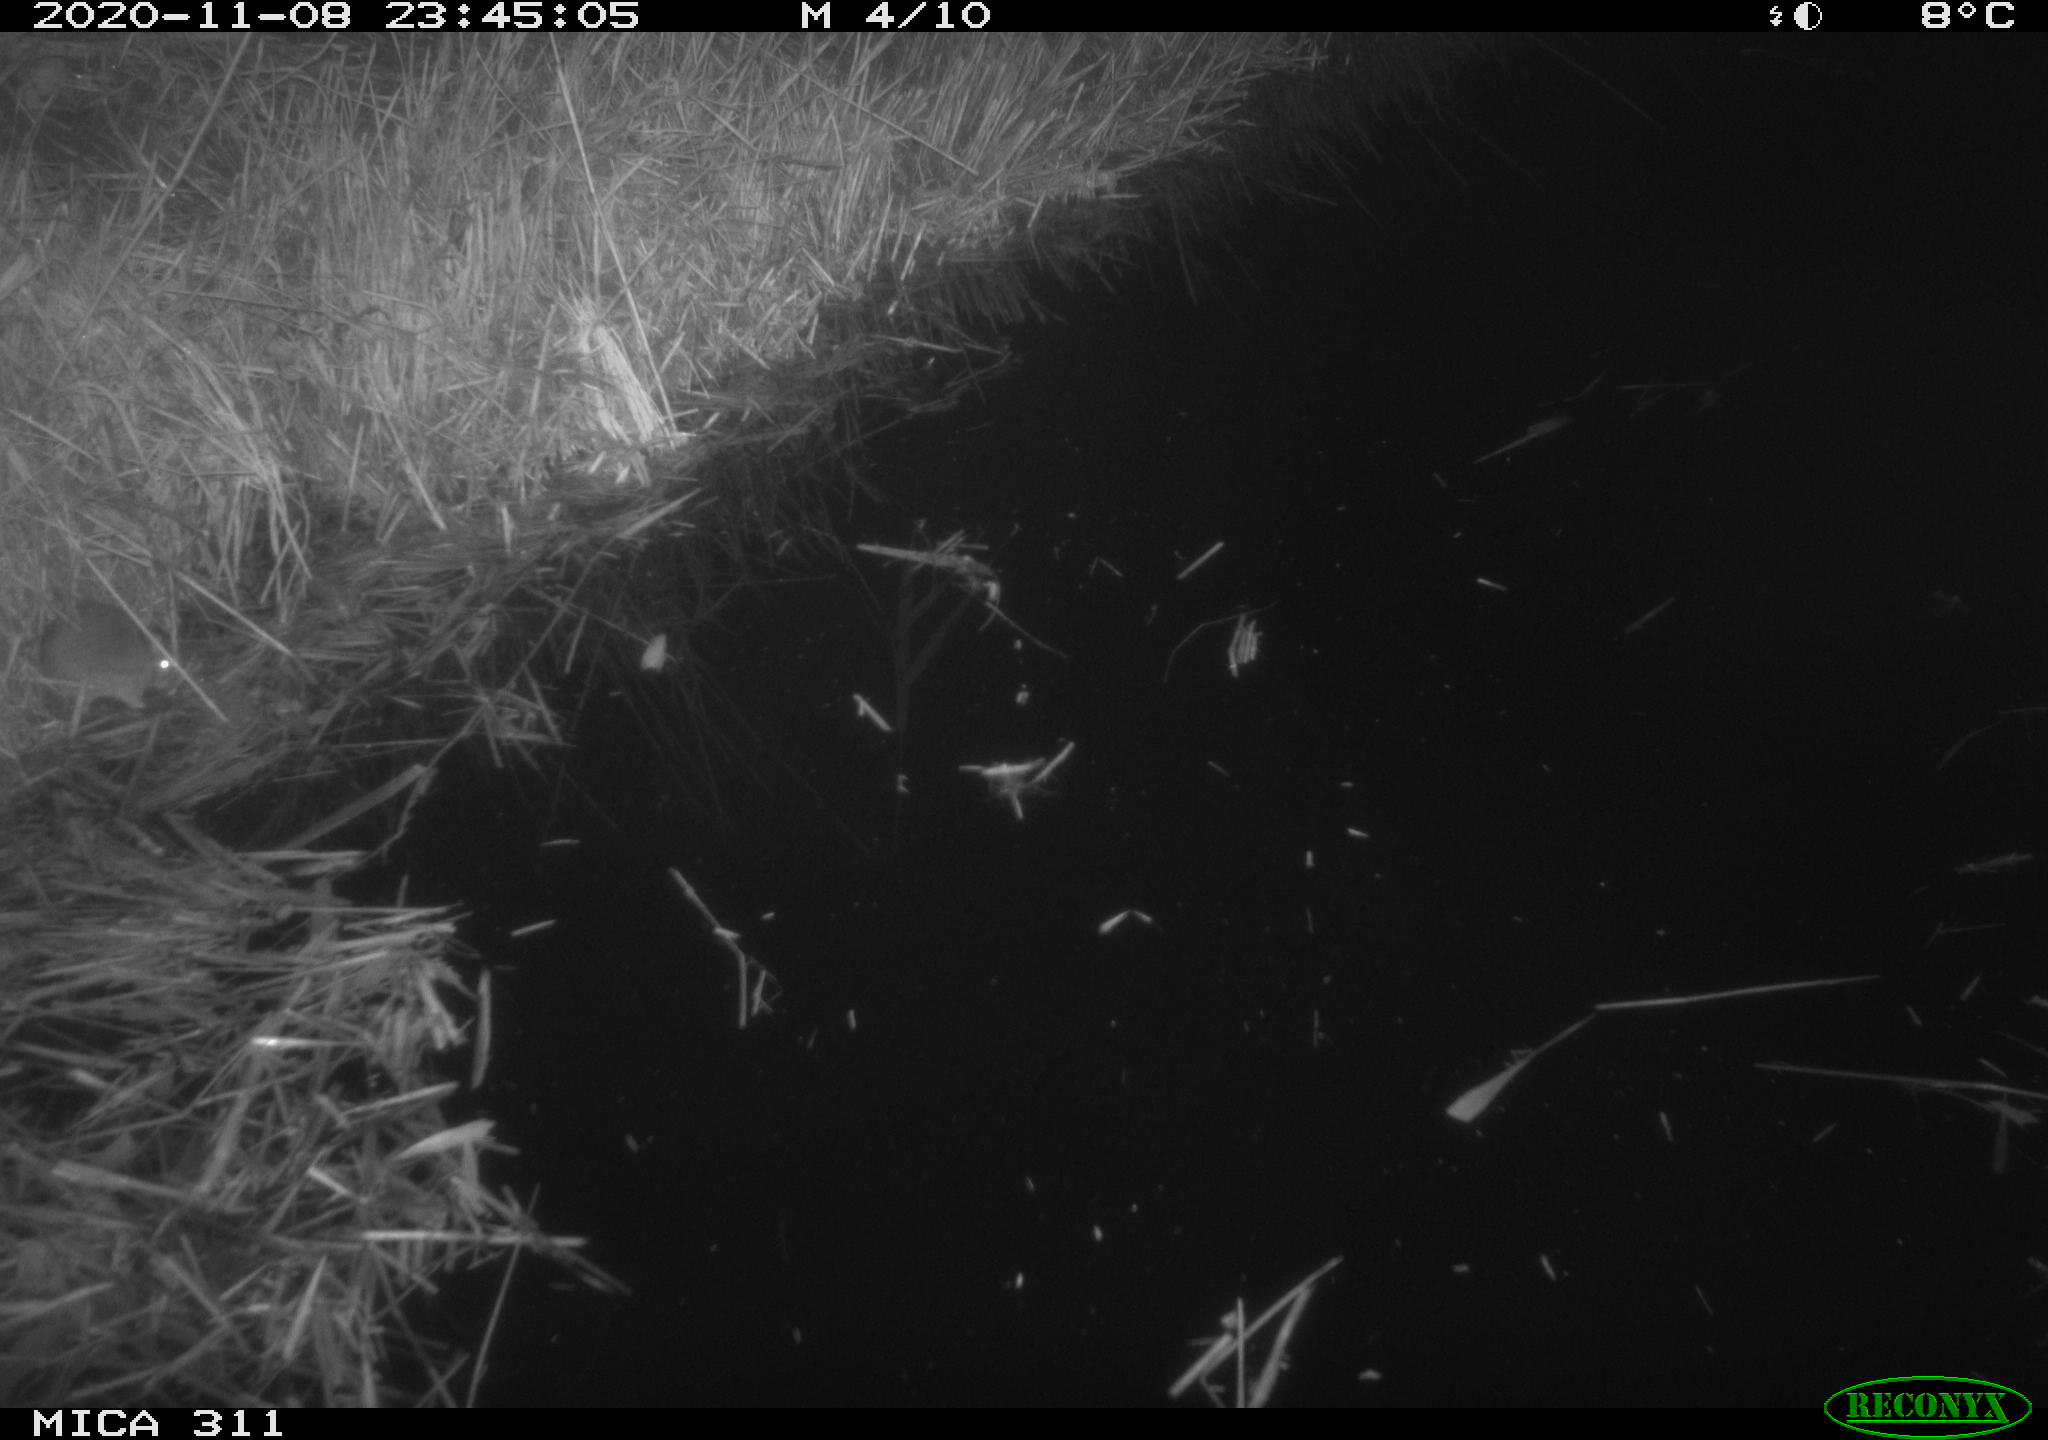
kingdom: Animalia
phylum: Chordata
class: Mammalia
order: Rodentia
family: Muridae
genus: Rattus
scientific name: Rattus norvegicus
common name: Brown rat
